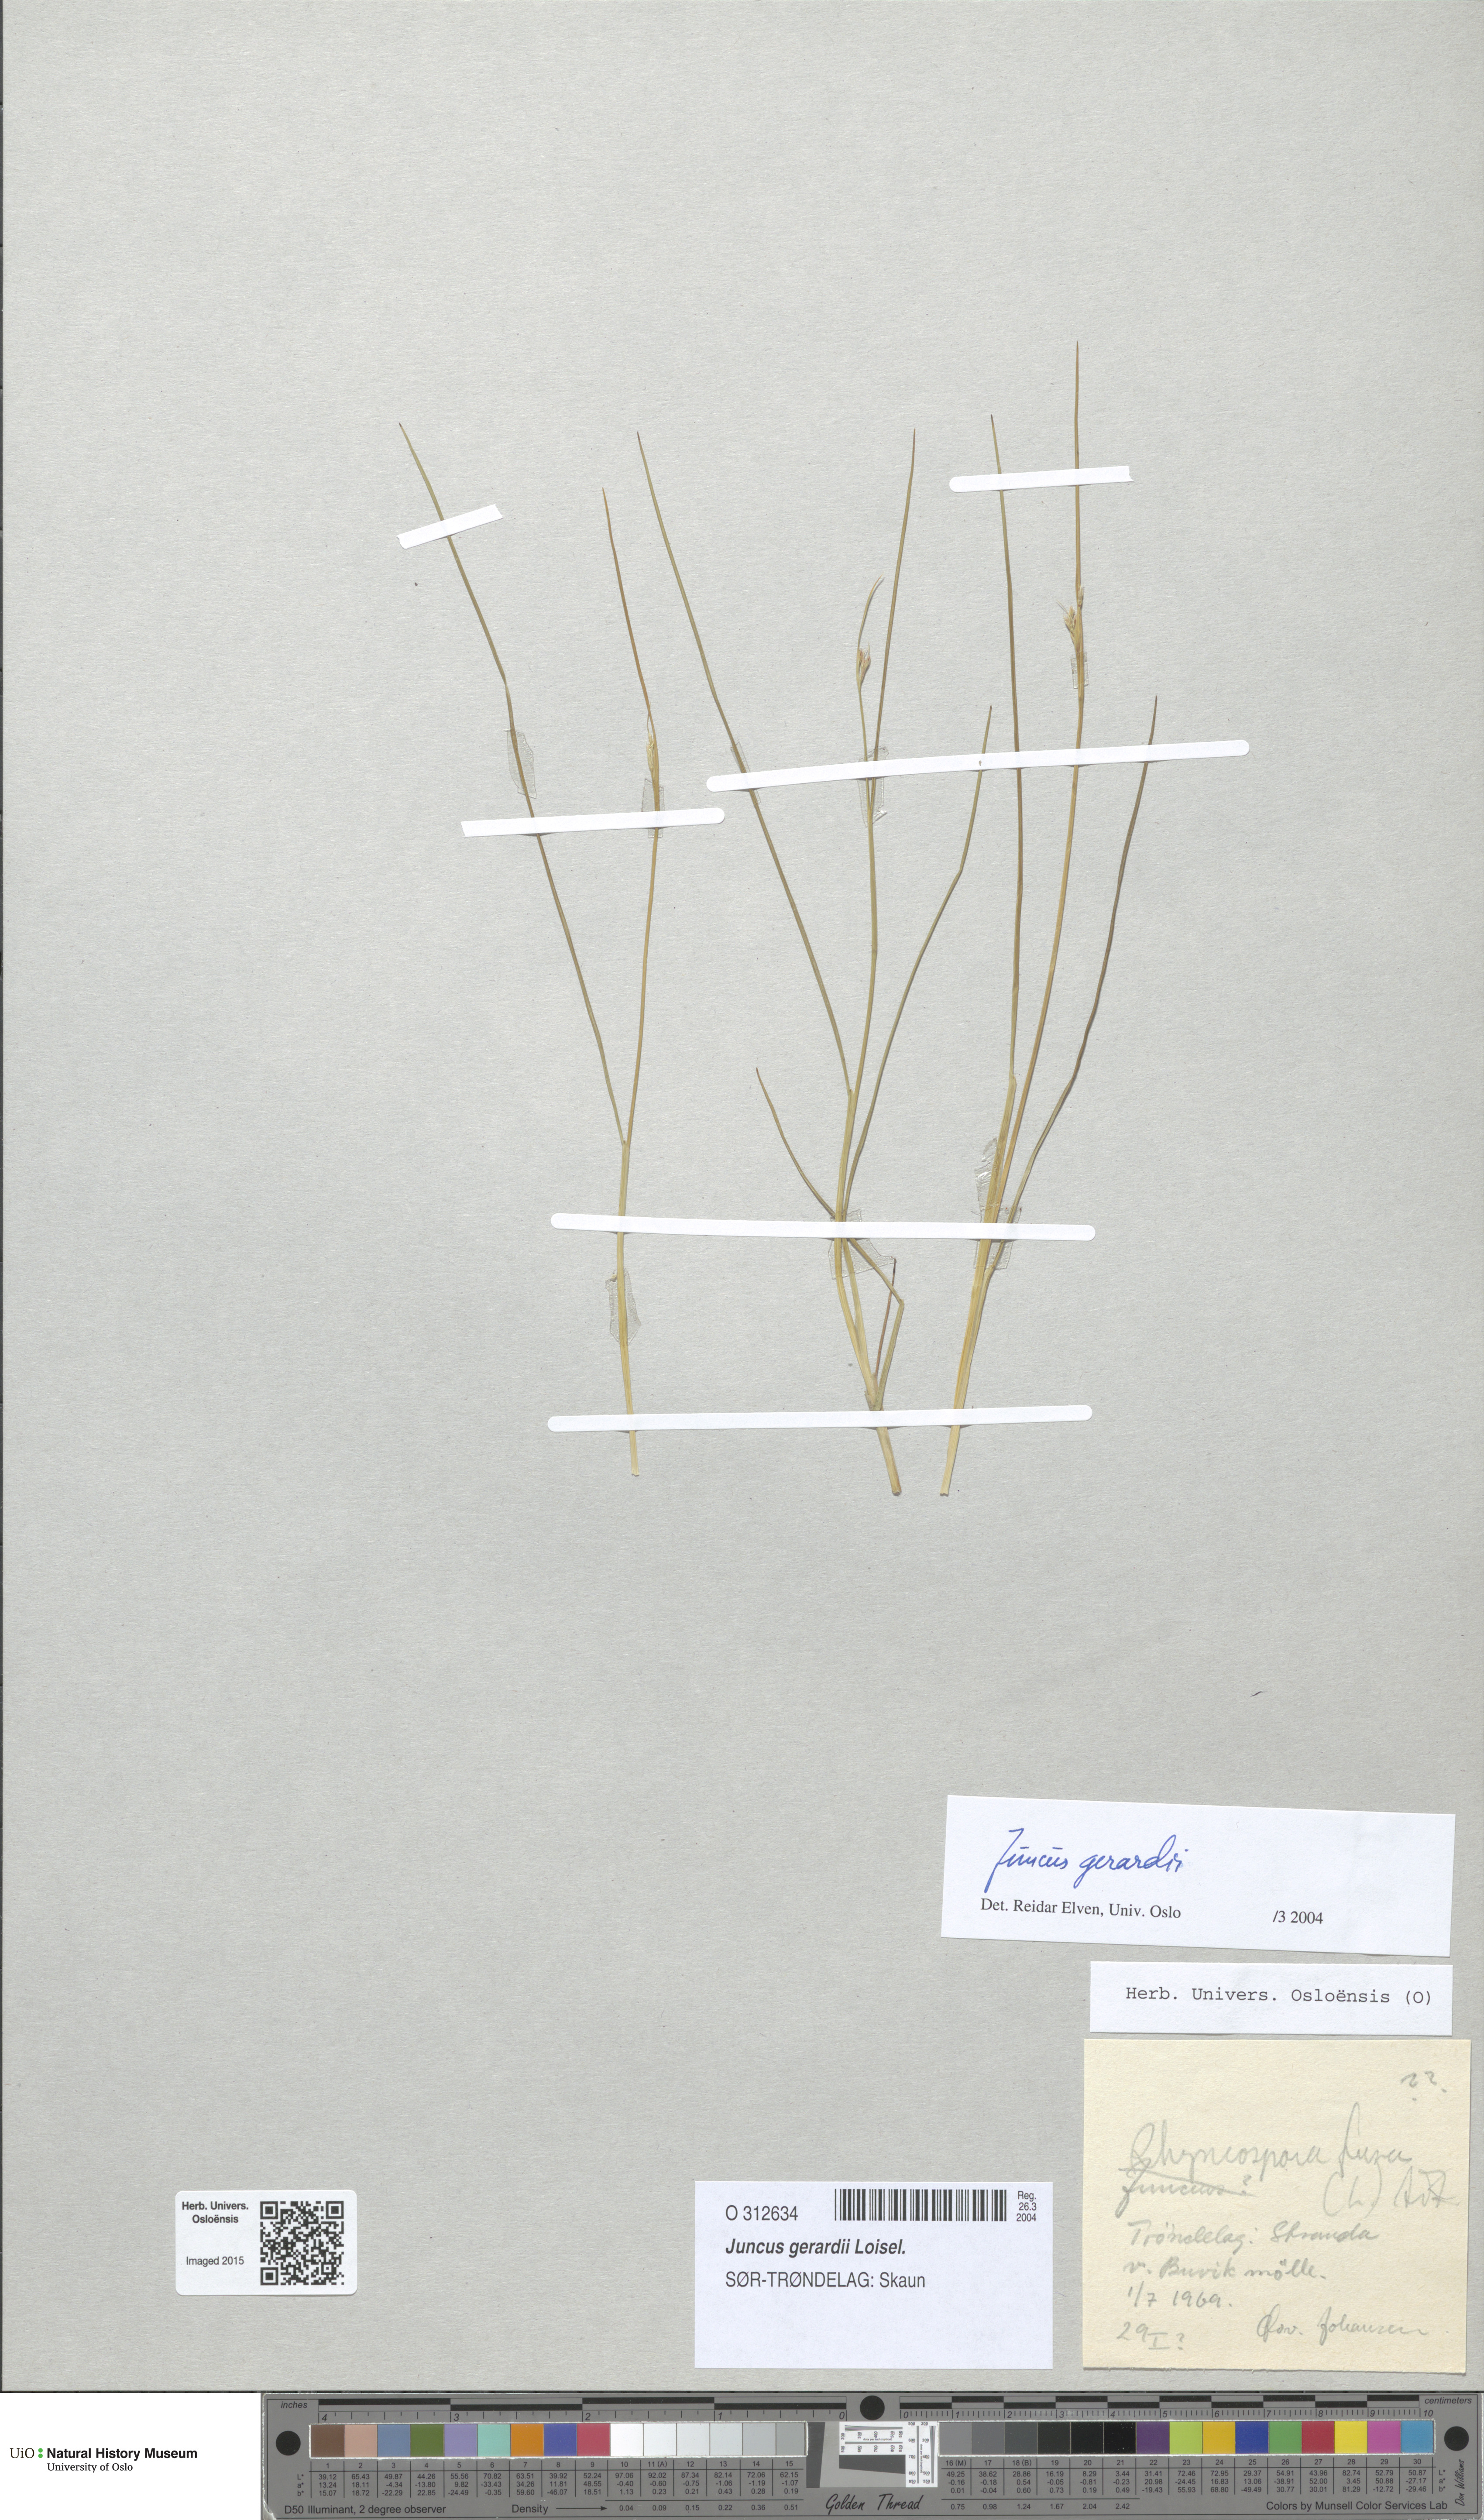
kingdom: Plantae
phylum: Tracheophyta
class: Liliopsida
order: Poales
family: Juncaceae
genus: Juncus
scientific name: Juncus gerardi
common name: Saltmarsh rush
